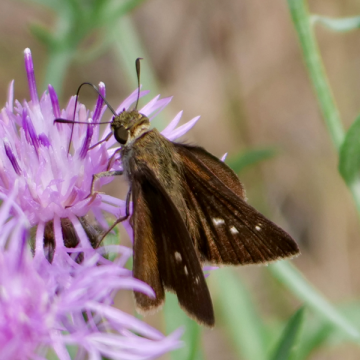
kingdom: Animalia
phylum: Arthropoda
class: Insecta
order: Lepidoptera
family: Hesperiidae
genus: Polites
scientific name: Polites egeremet
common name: Northern Broken-Dash
